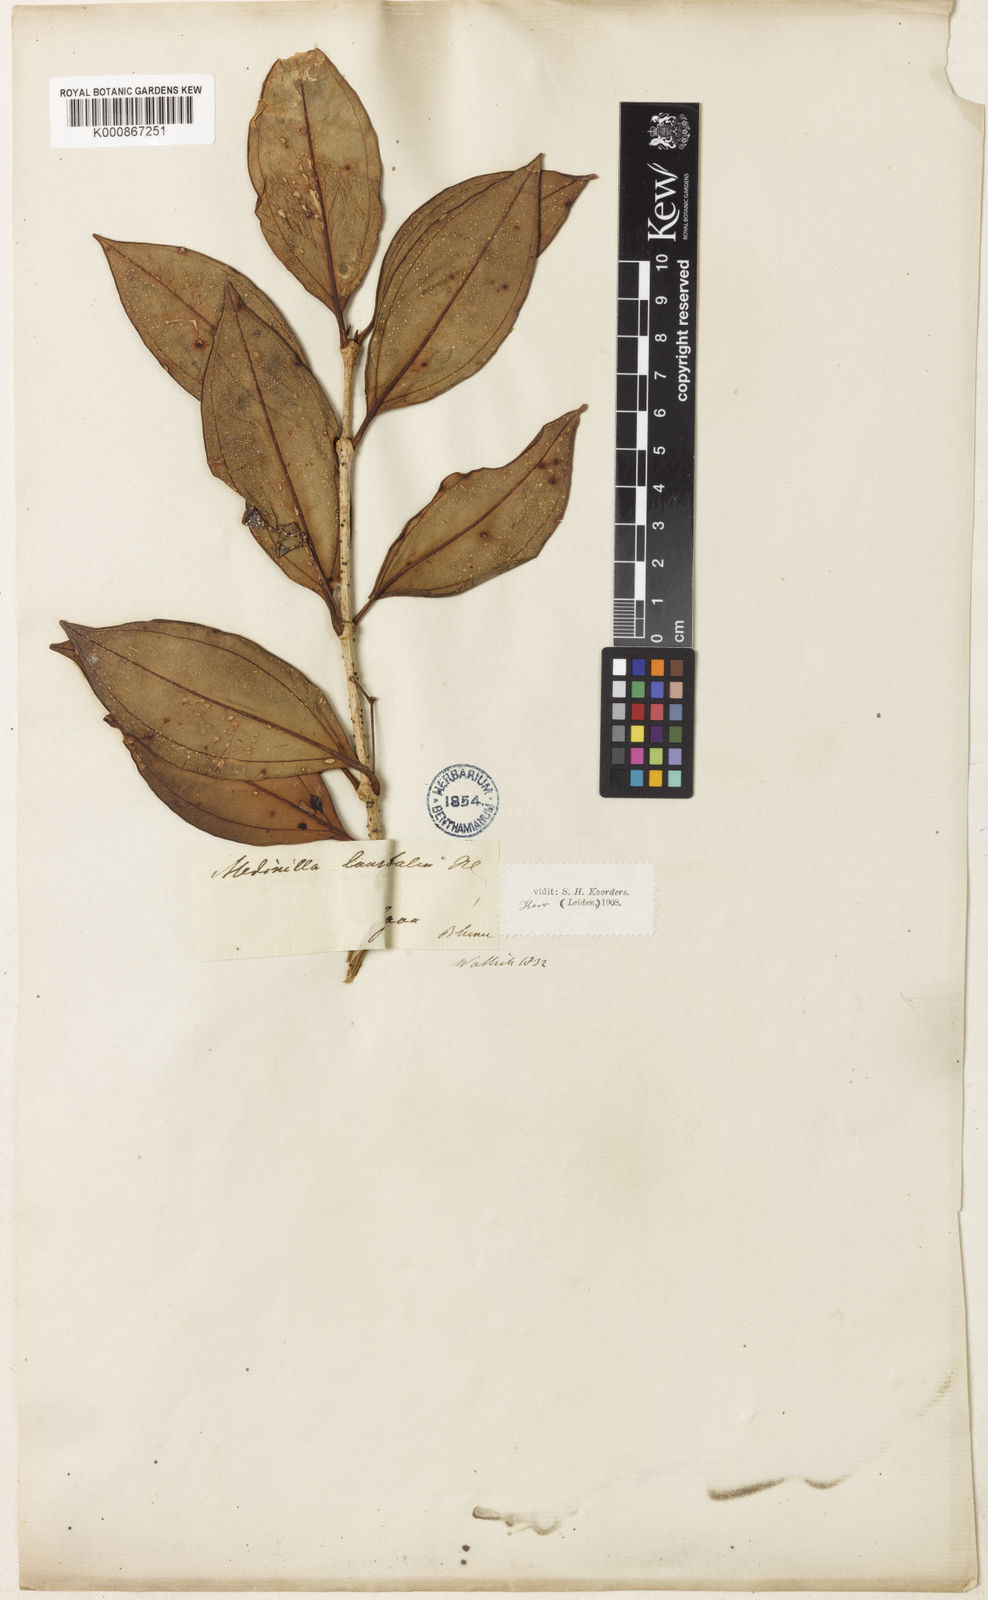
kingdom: Plantae
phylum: Tracheophyta
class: Magnoliopsida
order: Myrtales
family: Melastomataceae
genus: Medinilla
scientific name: Medinilla laurifolia
